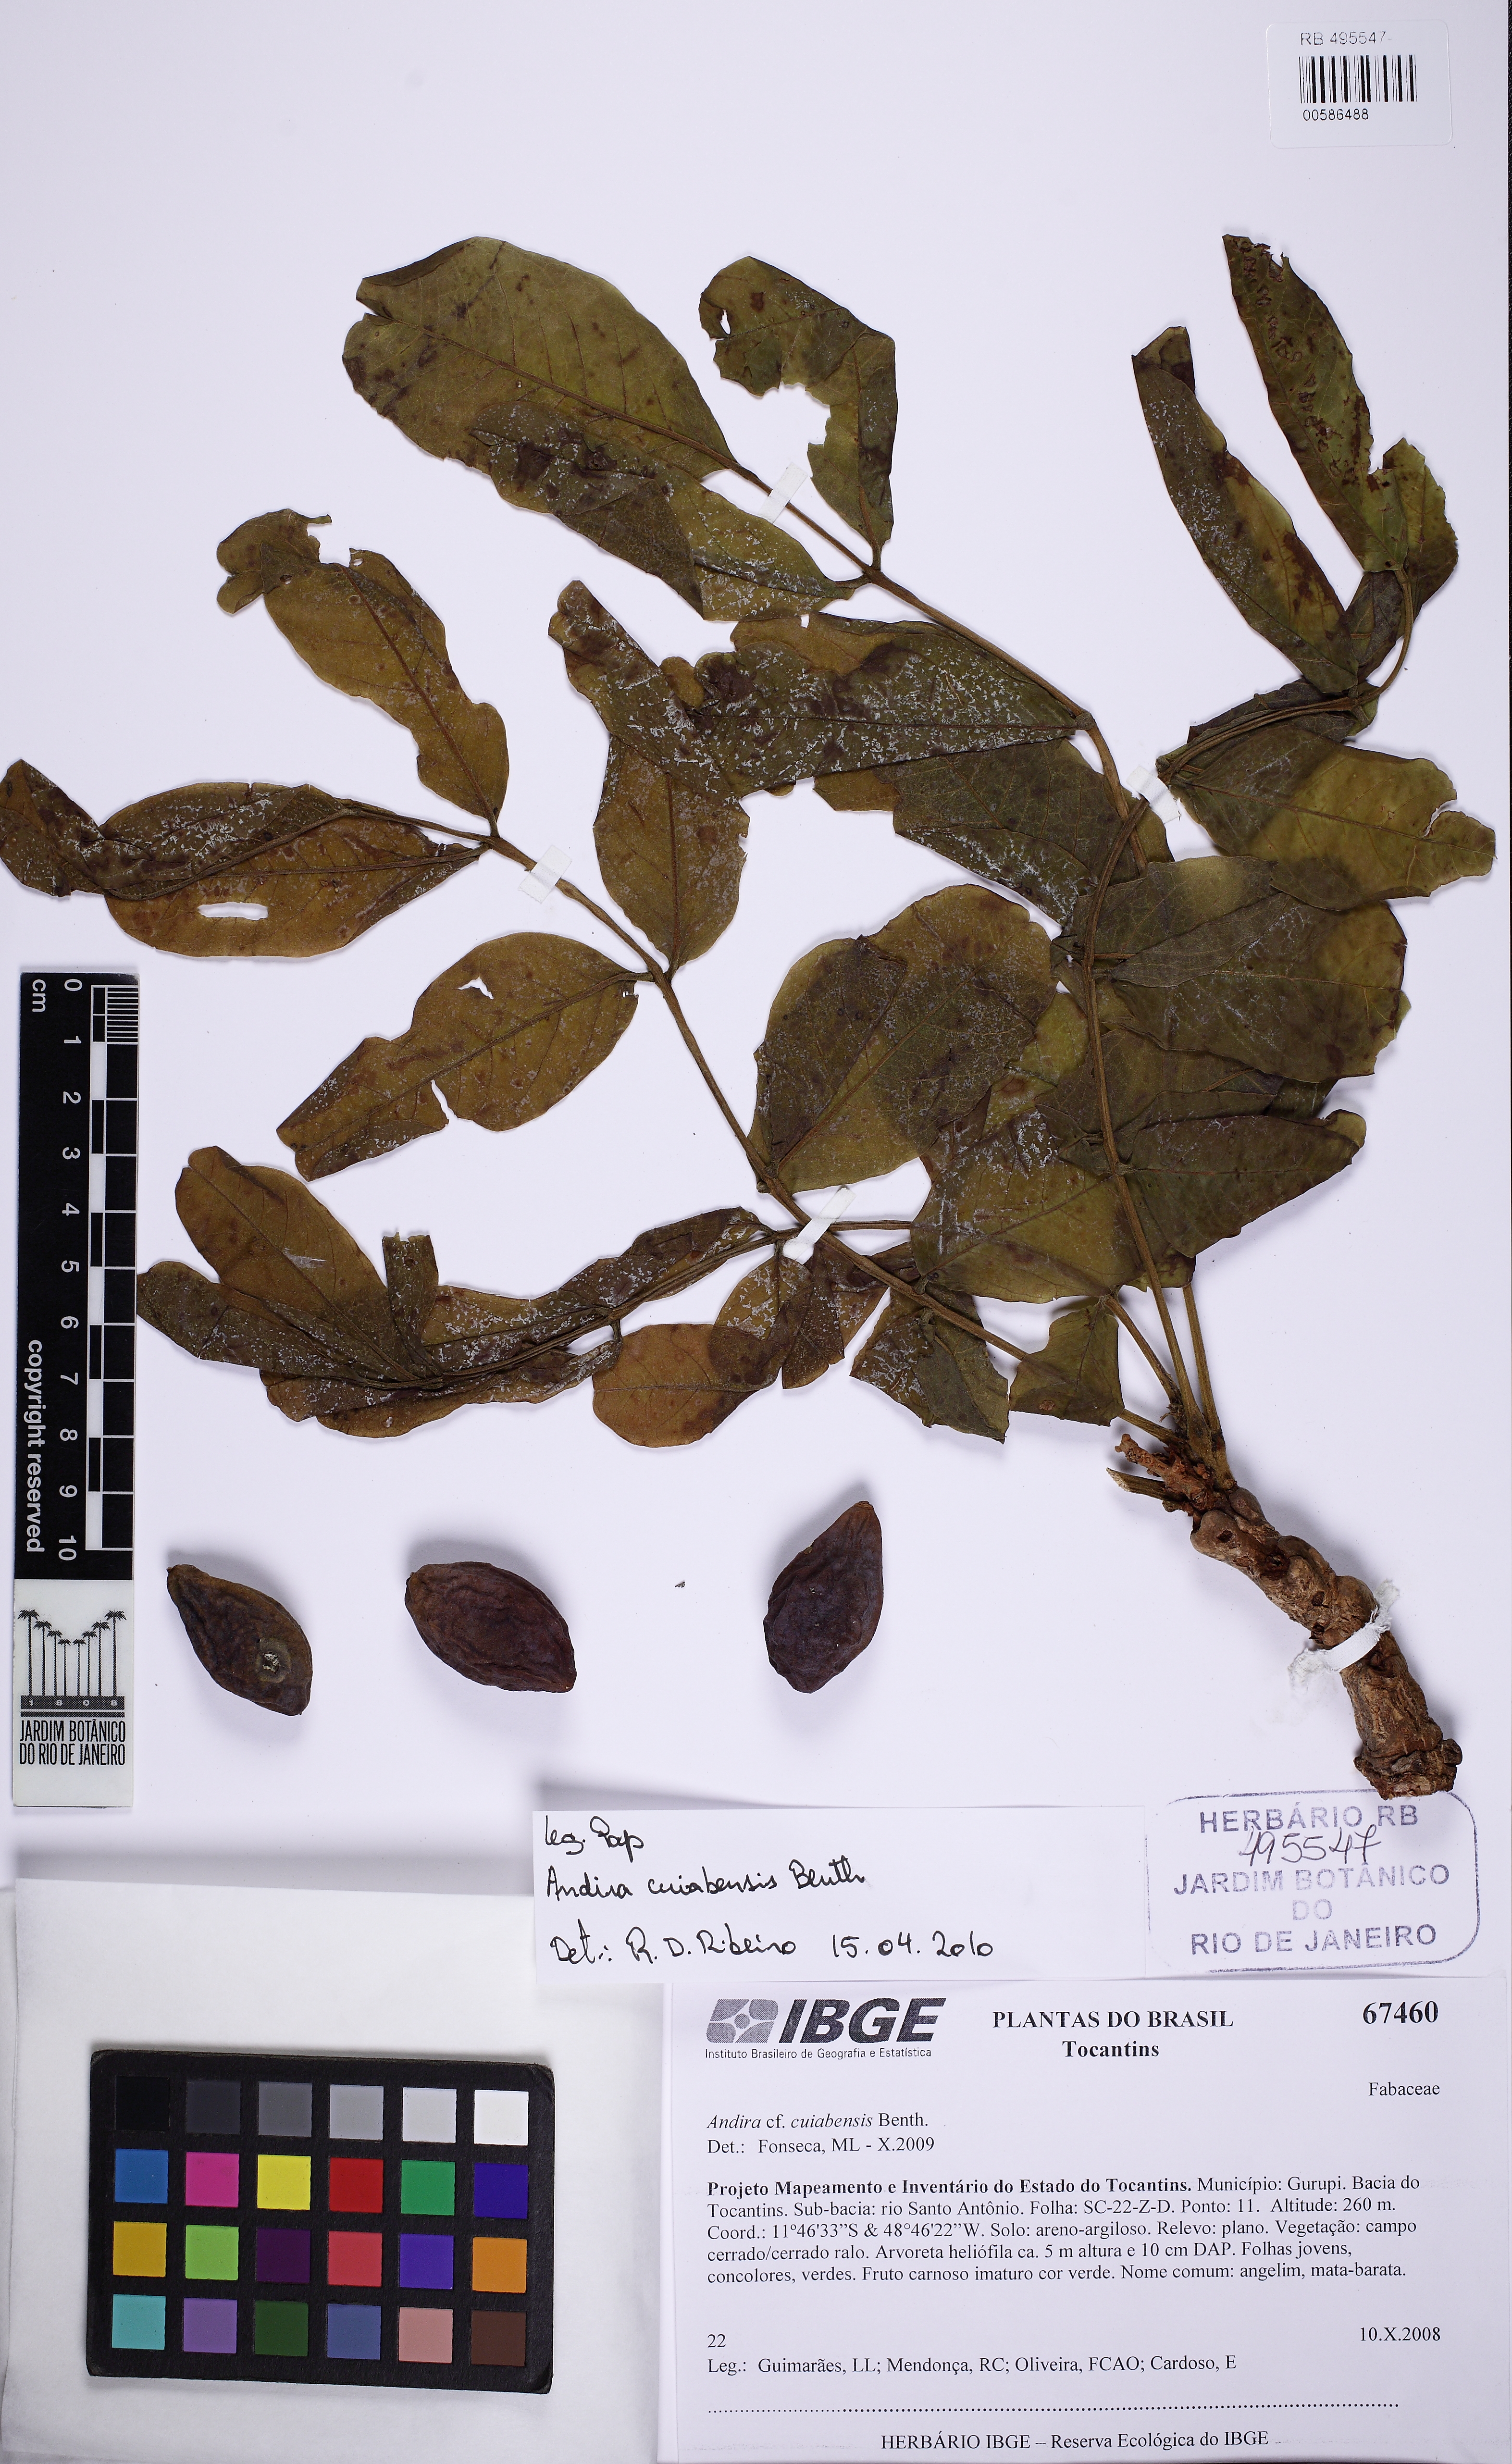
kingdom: Plantae
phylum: Tracheophyta
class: Magnoliopsida
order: Fabales
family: Fabaceae
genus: Andira
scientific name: Andira cujabensis
